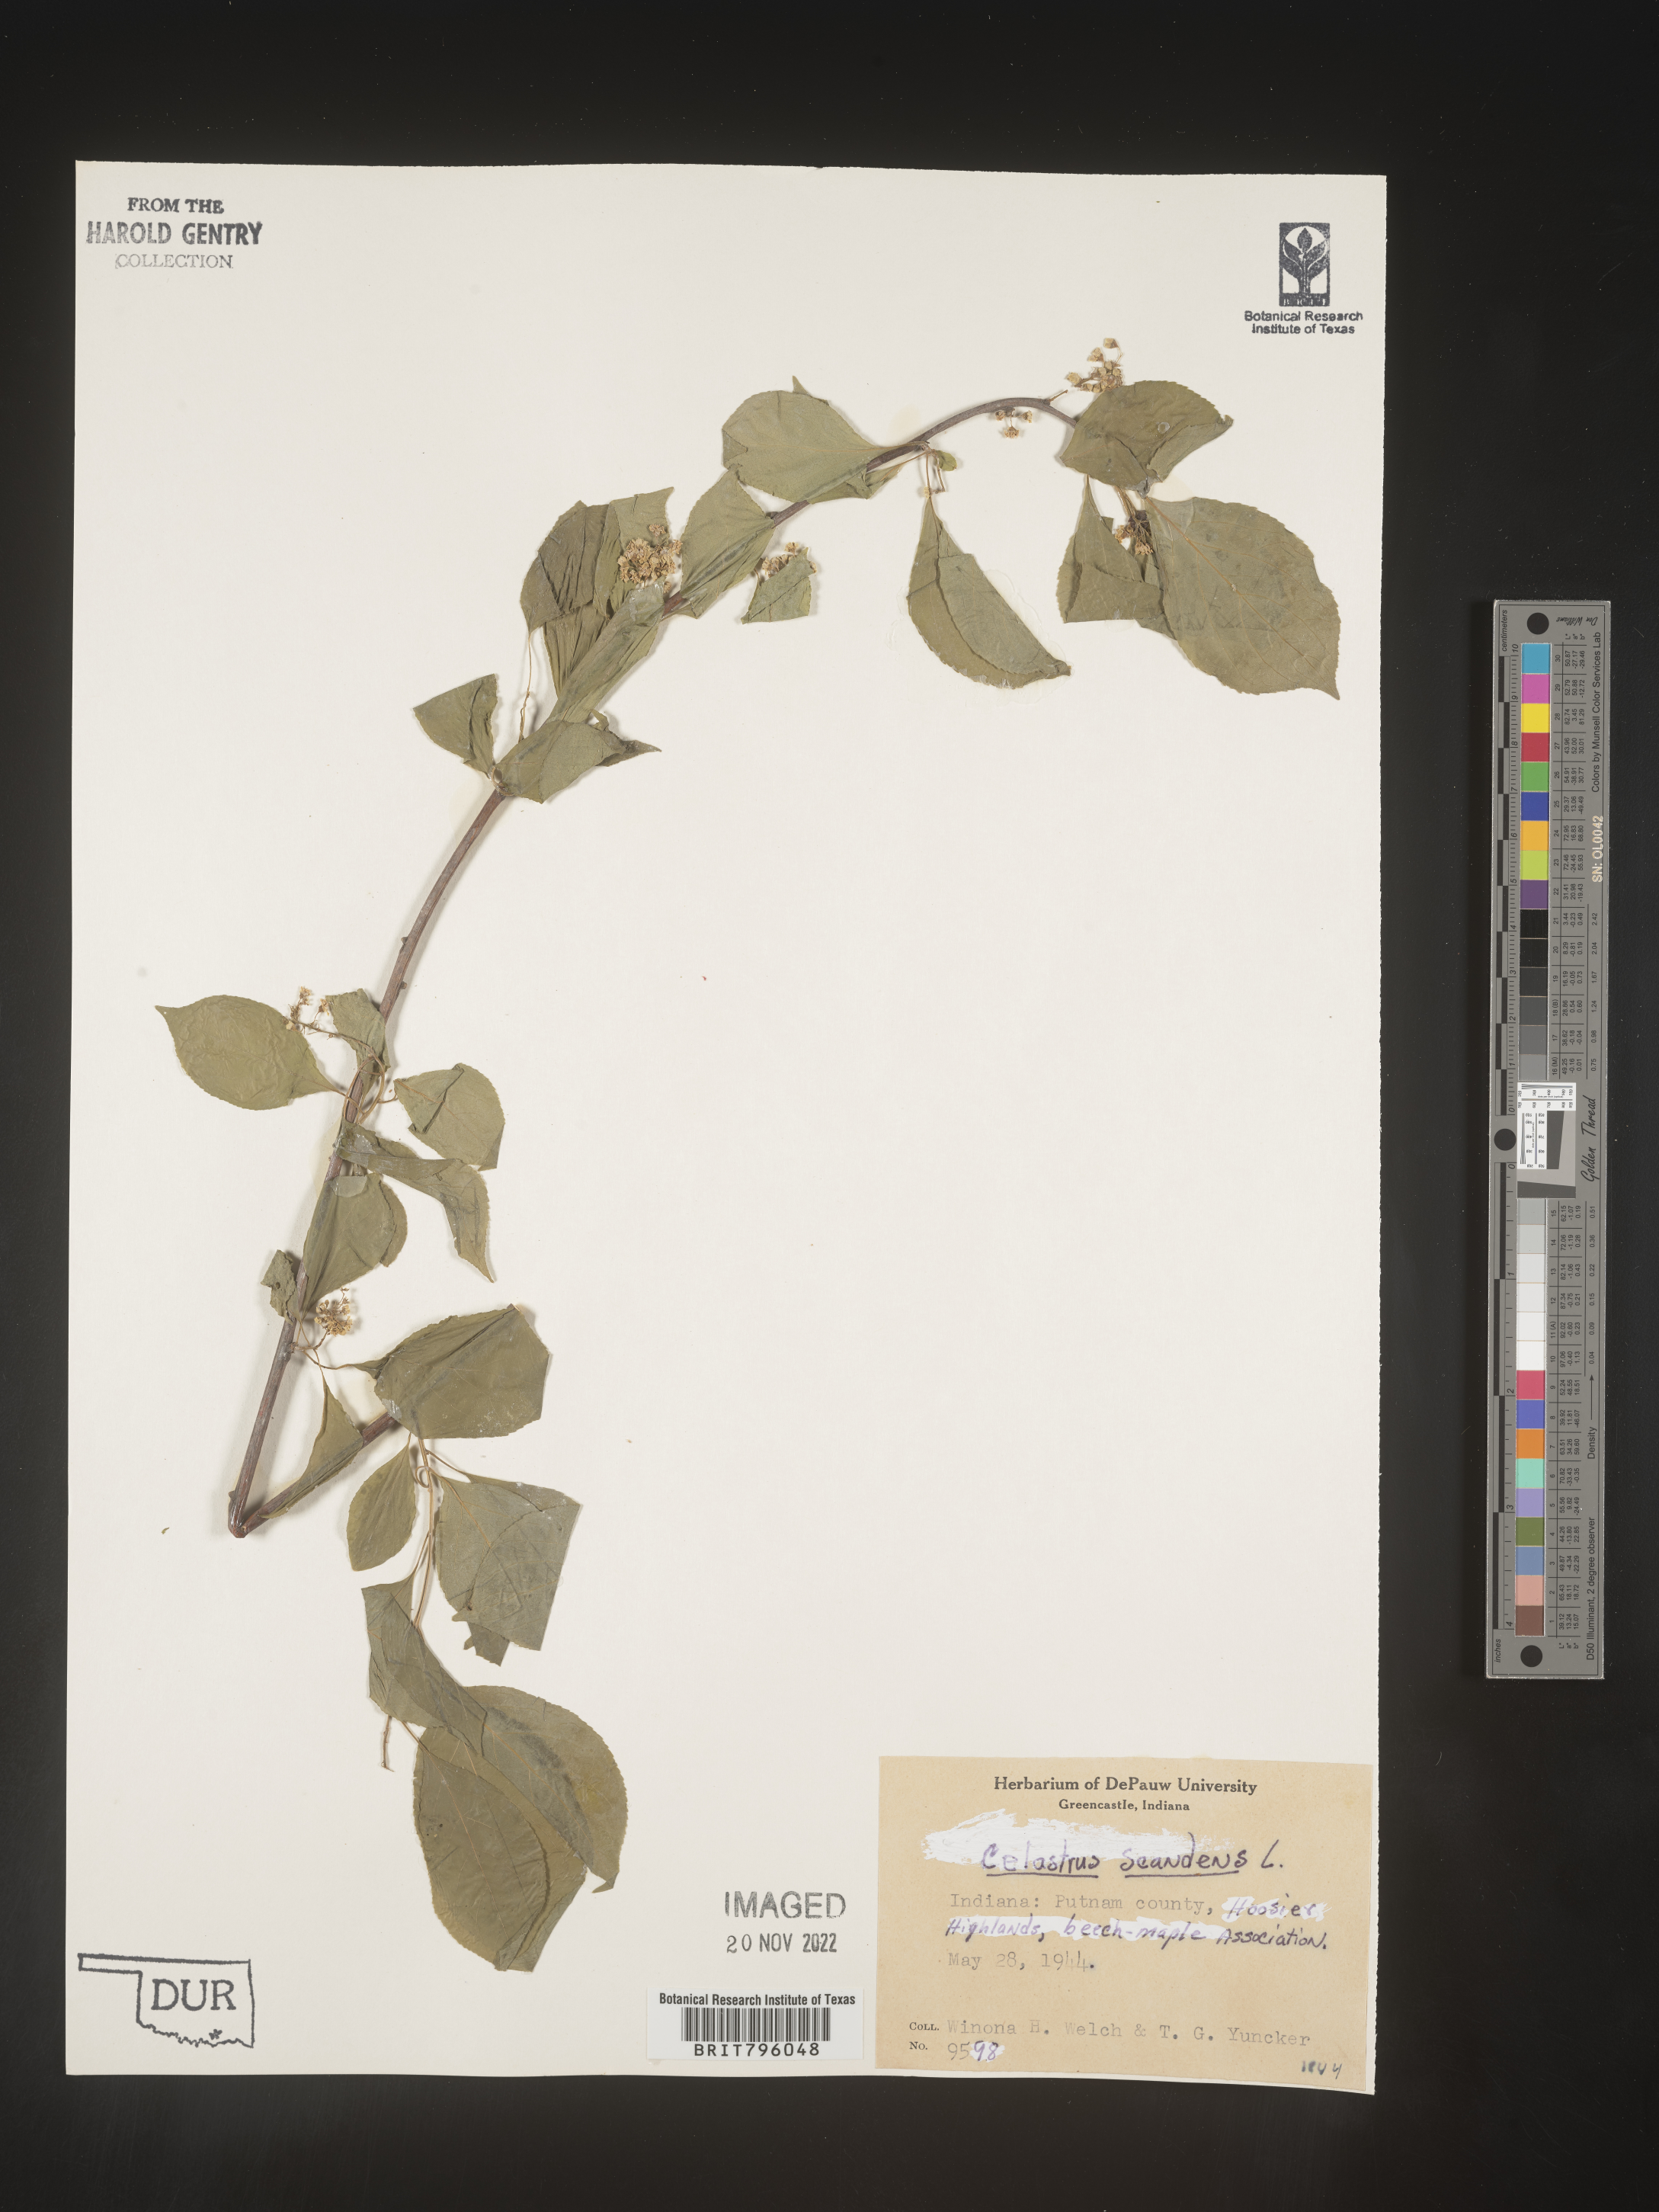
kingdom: Plantae
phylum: Tracheophyta
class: Magnoliopsida
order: Celastrales
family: Celastraceae
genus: Celastrus
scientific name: Celastrus scandens
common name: American bittersweet
